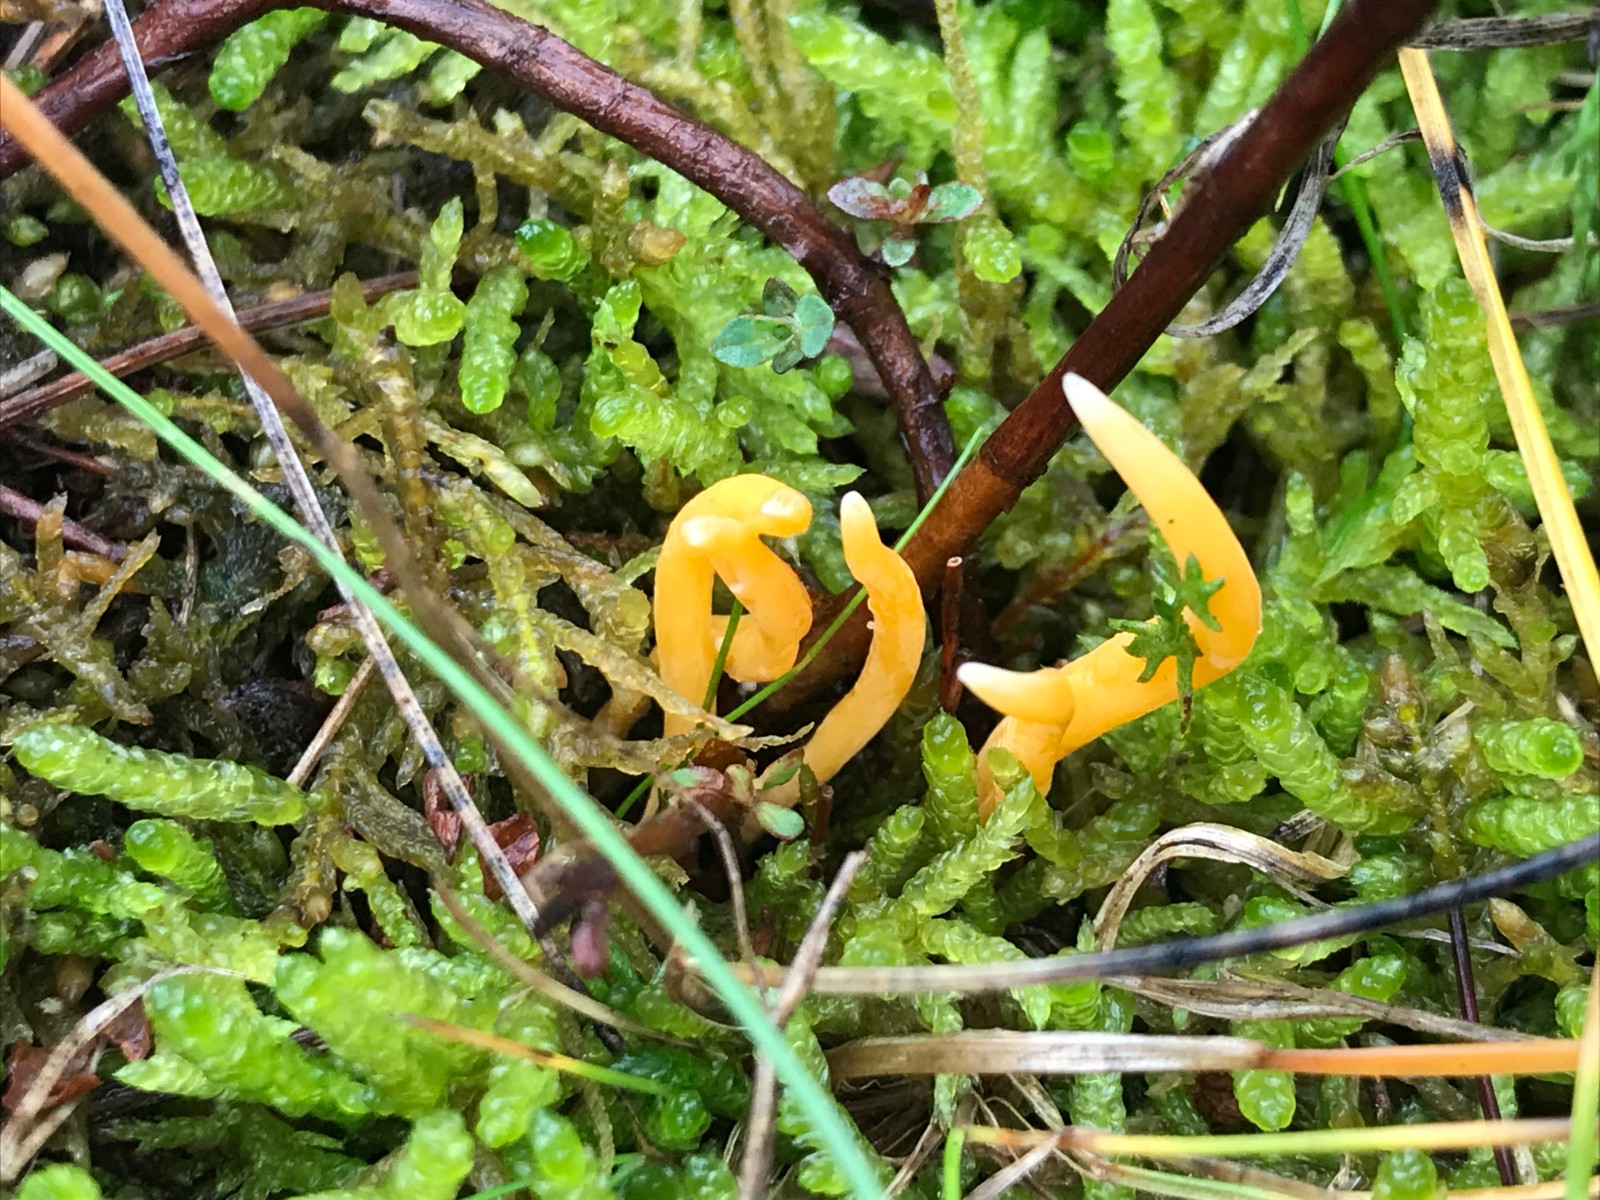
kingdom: Fungi
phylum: Basidiomycota
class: Agaricomycetes
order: Agaricales
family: Clavariaceae
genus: Clavulinopsis
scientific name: Clavulinopsis laeticolor
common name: flamme-køllesvamp
